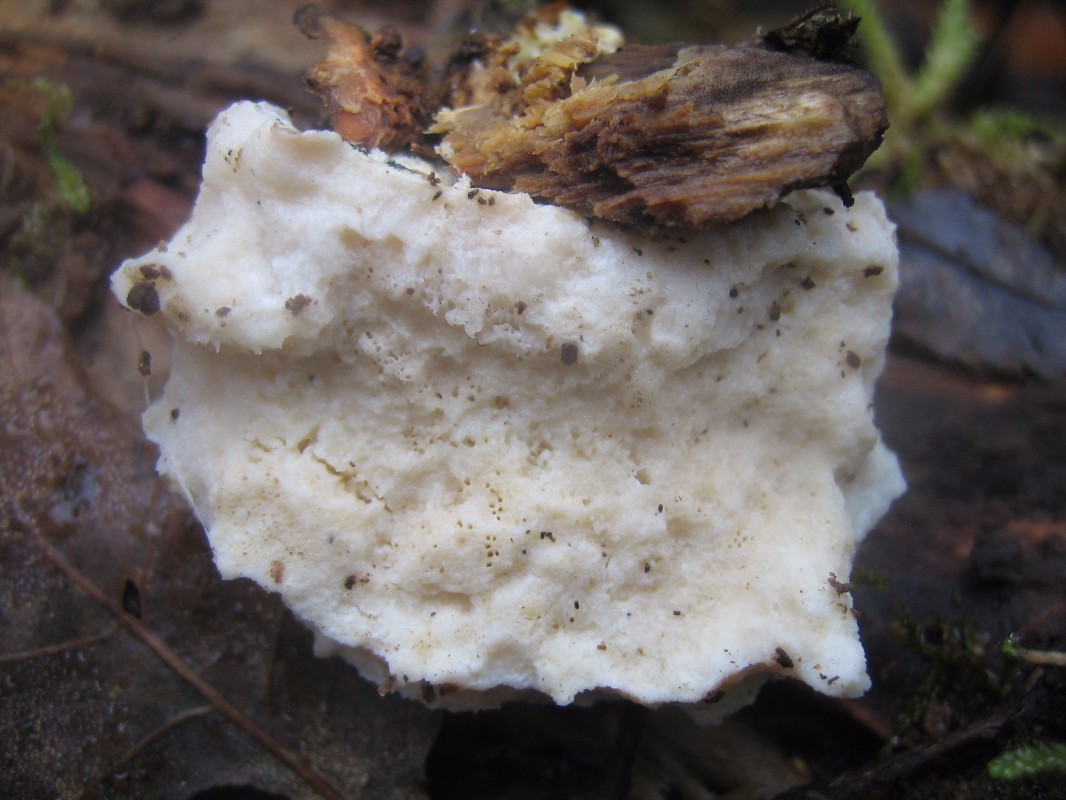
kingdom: Fungi
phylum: Basidiomycota
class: Agaricomycetes
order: Polyporales
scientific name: Polyporales
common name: poresvampordenen
